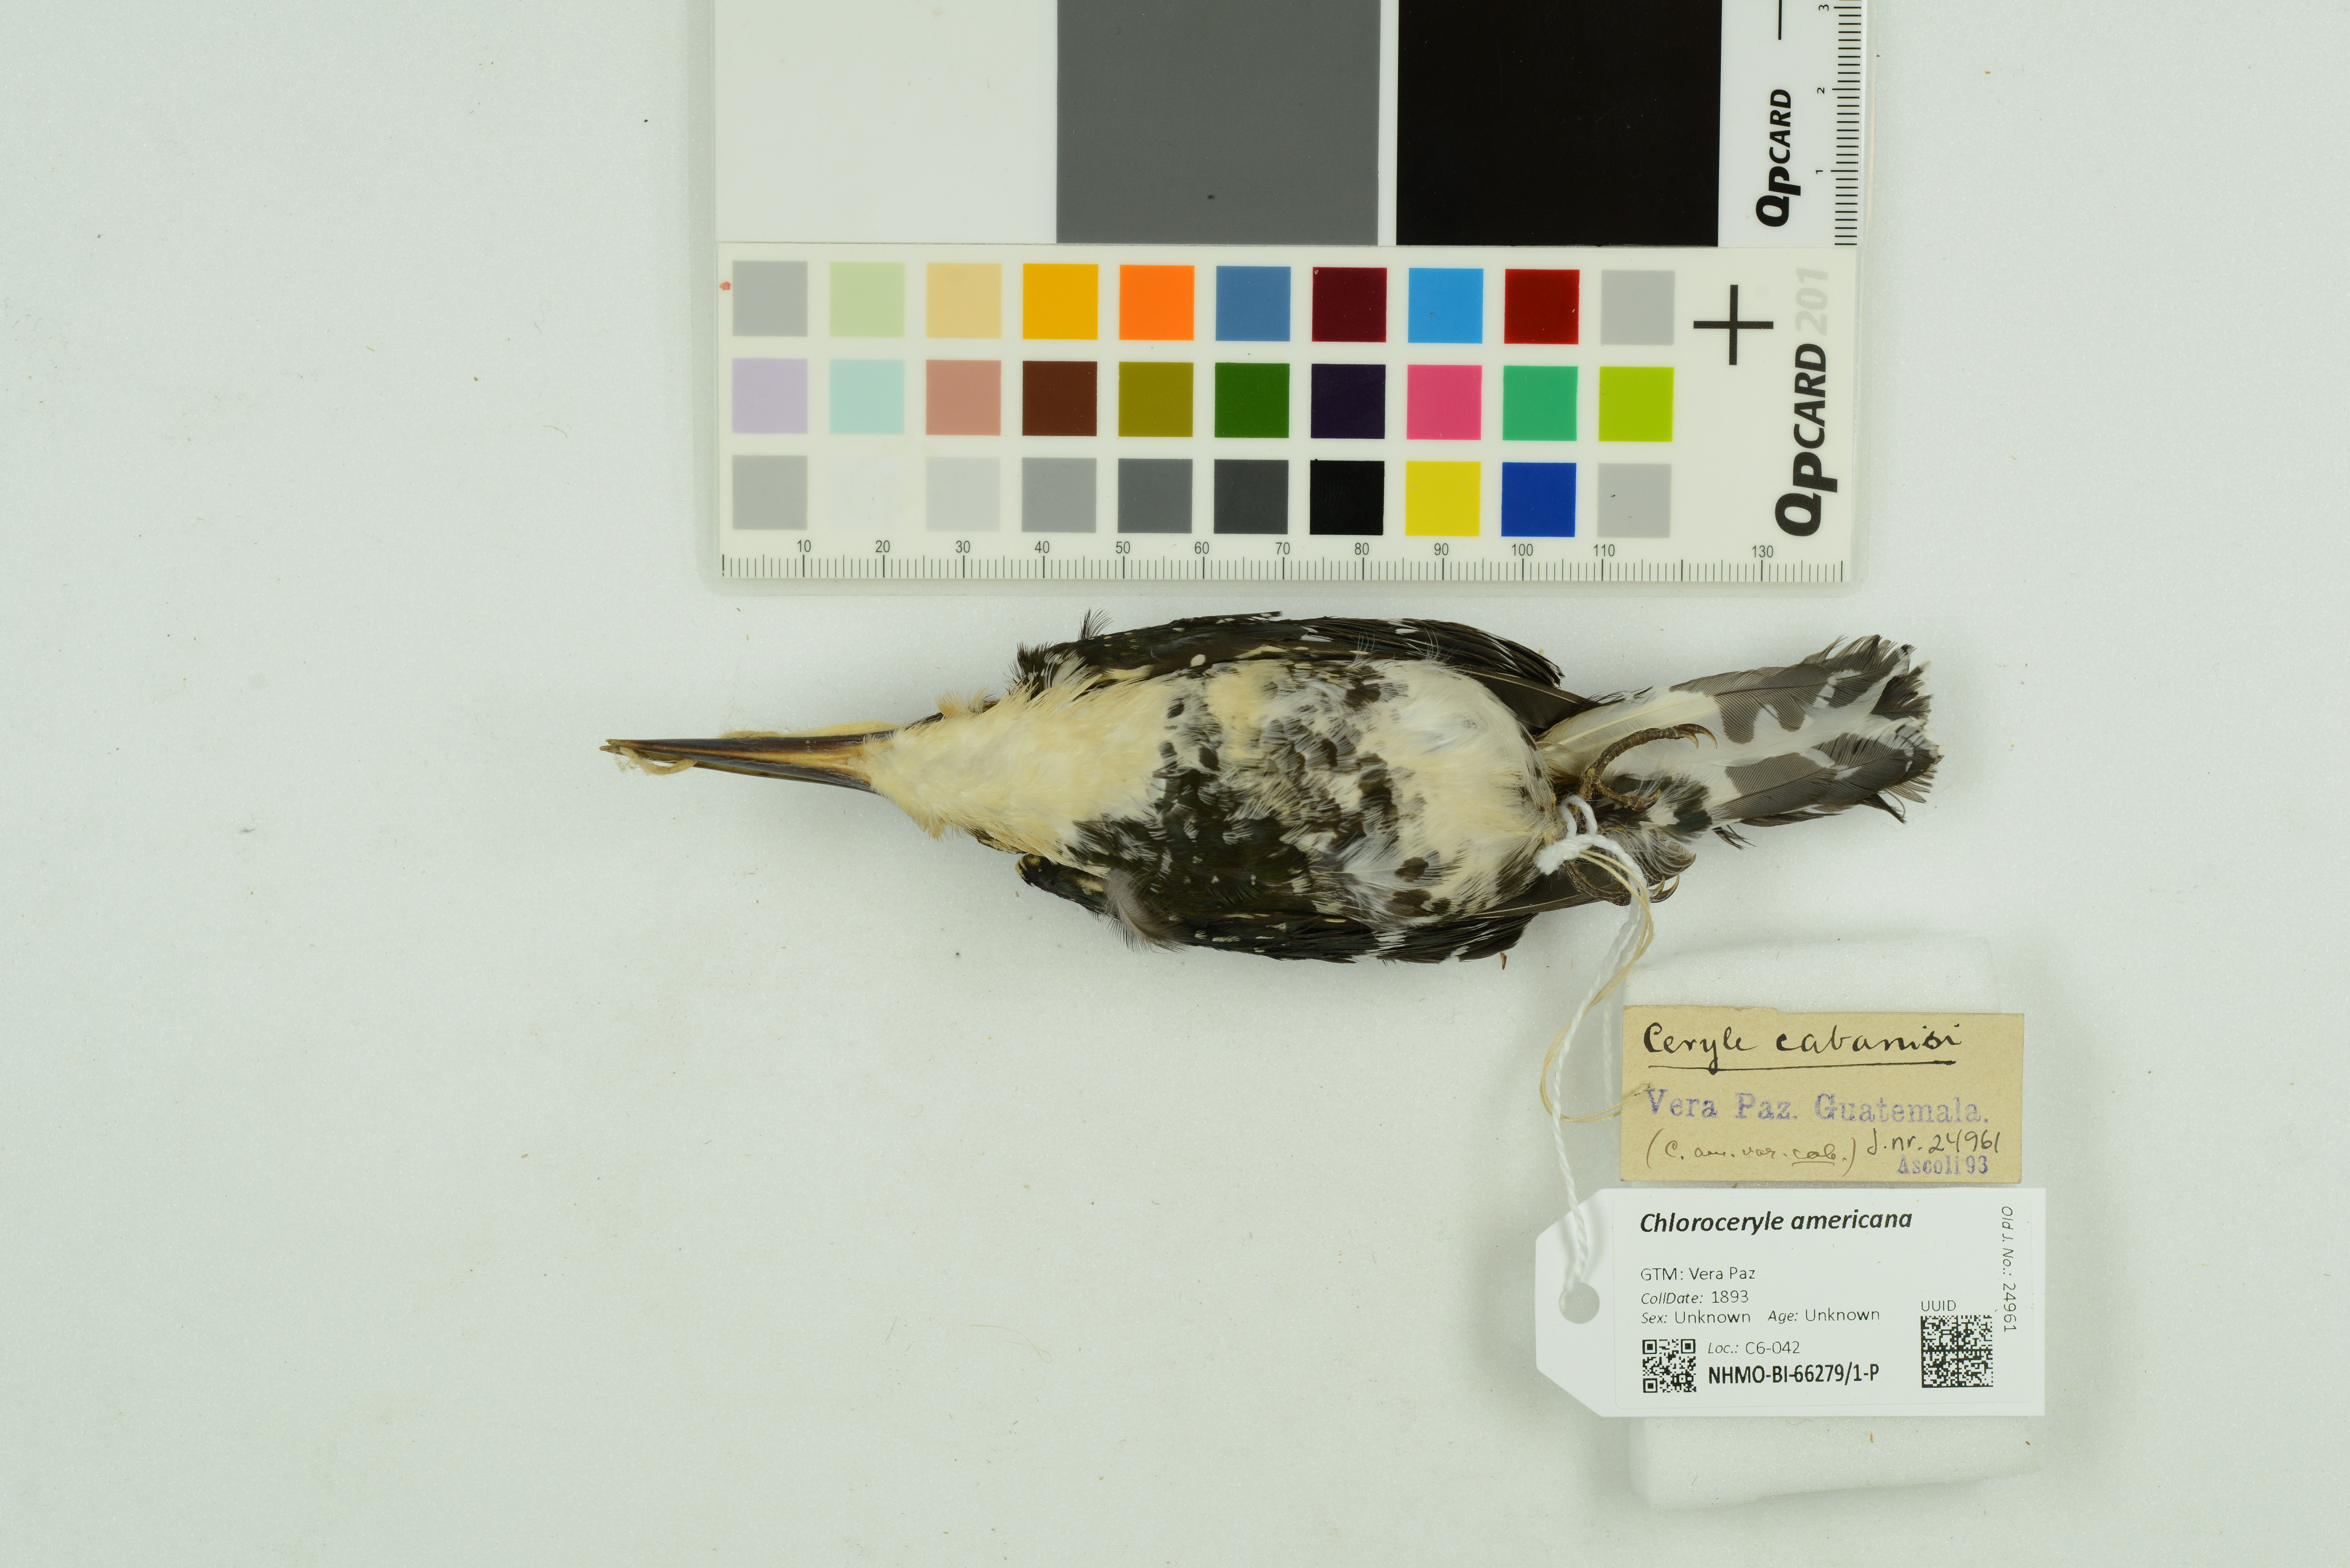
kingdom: Animalia
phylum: Chordata
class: Aves
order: Coraciiformes
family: Alcedinidae
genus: Chloroceryle
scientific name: Chloroceryle americana
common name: Green kingfisher
